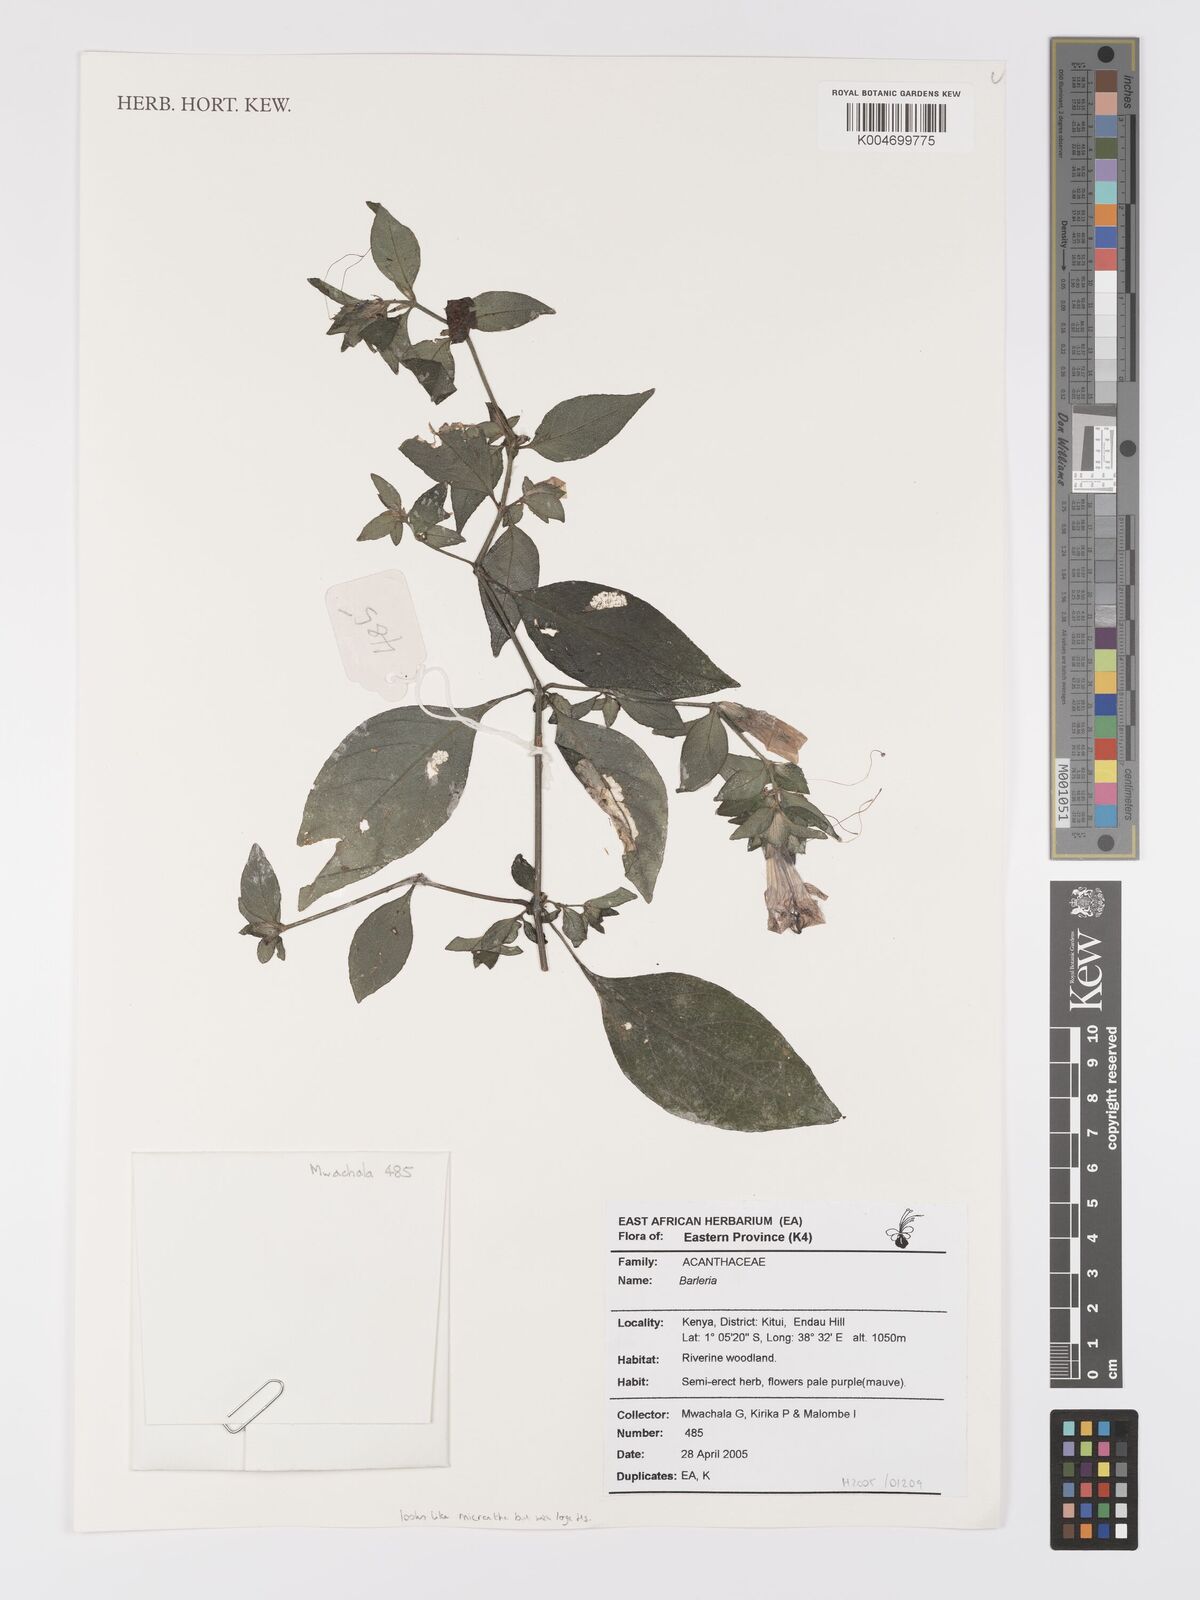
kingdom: Plantae
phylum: Tracheophyta
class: Magnoliopsida
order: Lamiales
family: Acanthaceae
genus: Barleria
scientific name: Barleria ventricosa
